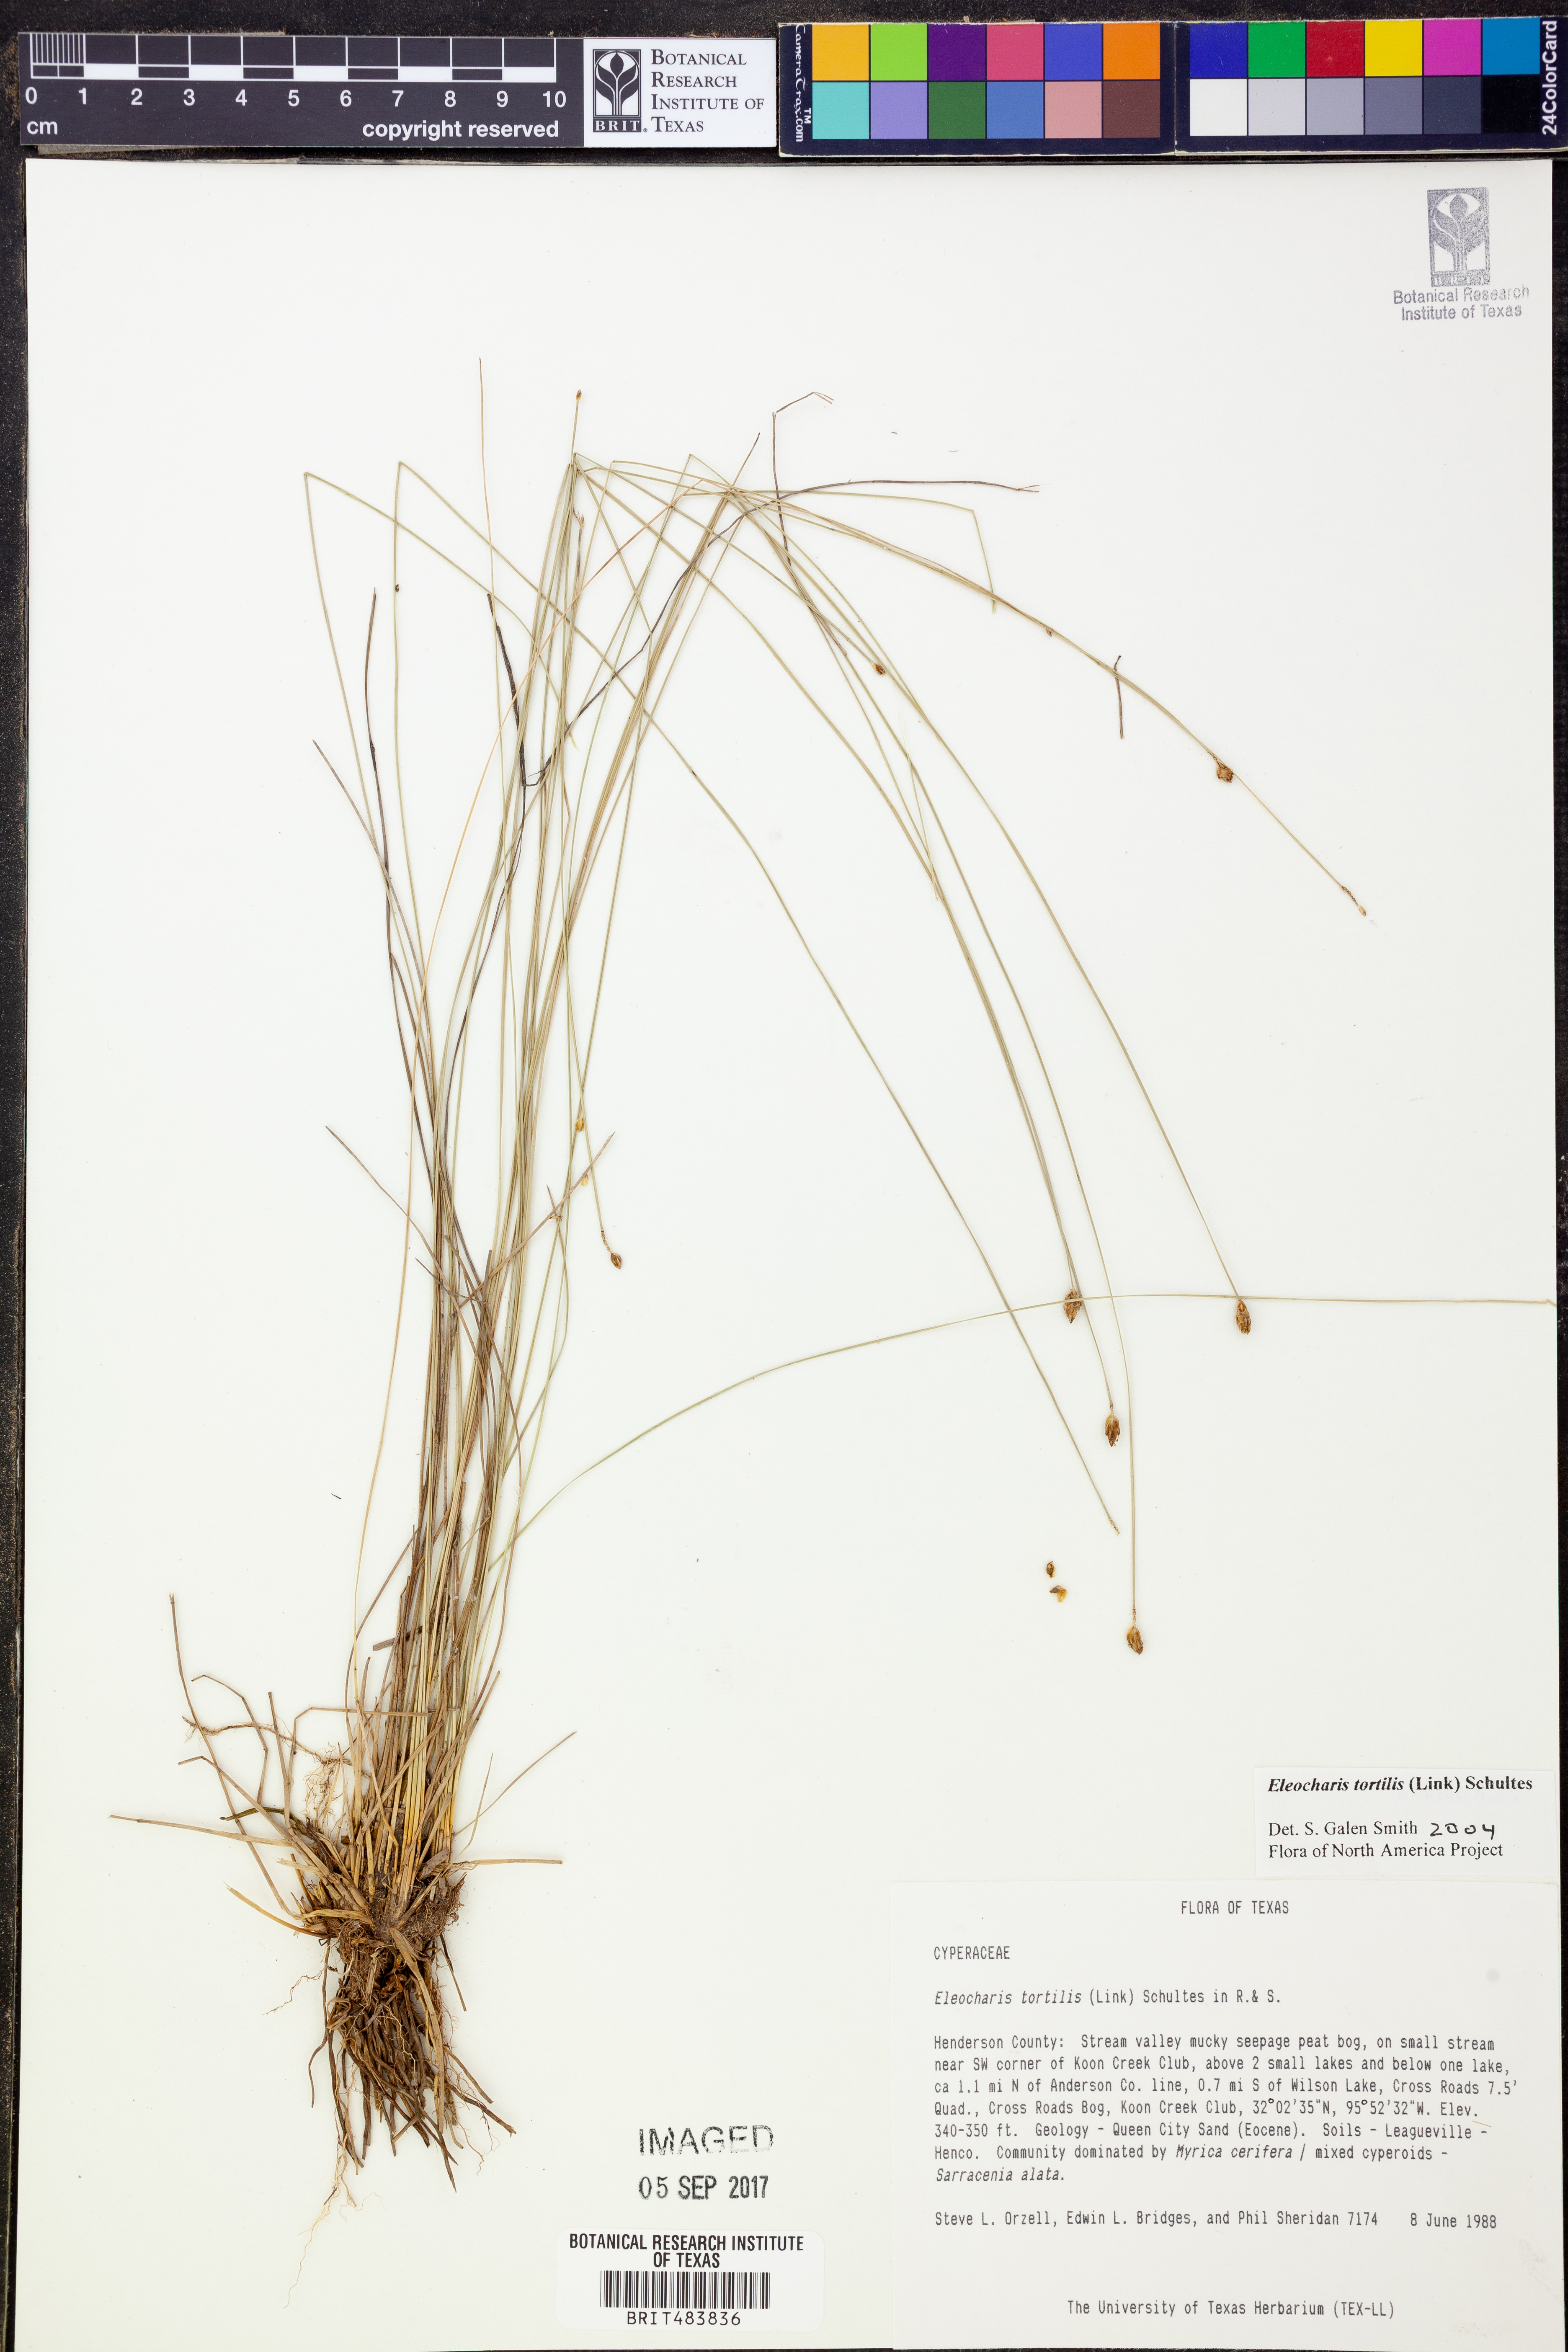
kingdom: Plantae
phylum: Tracheophyta
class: Liliopsida
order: Poales
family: Cyperaceae
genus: Eleocharis
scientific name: Eleocharis tortilis
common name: Twisted spike sedge
